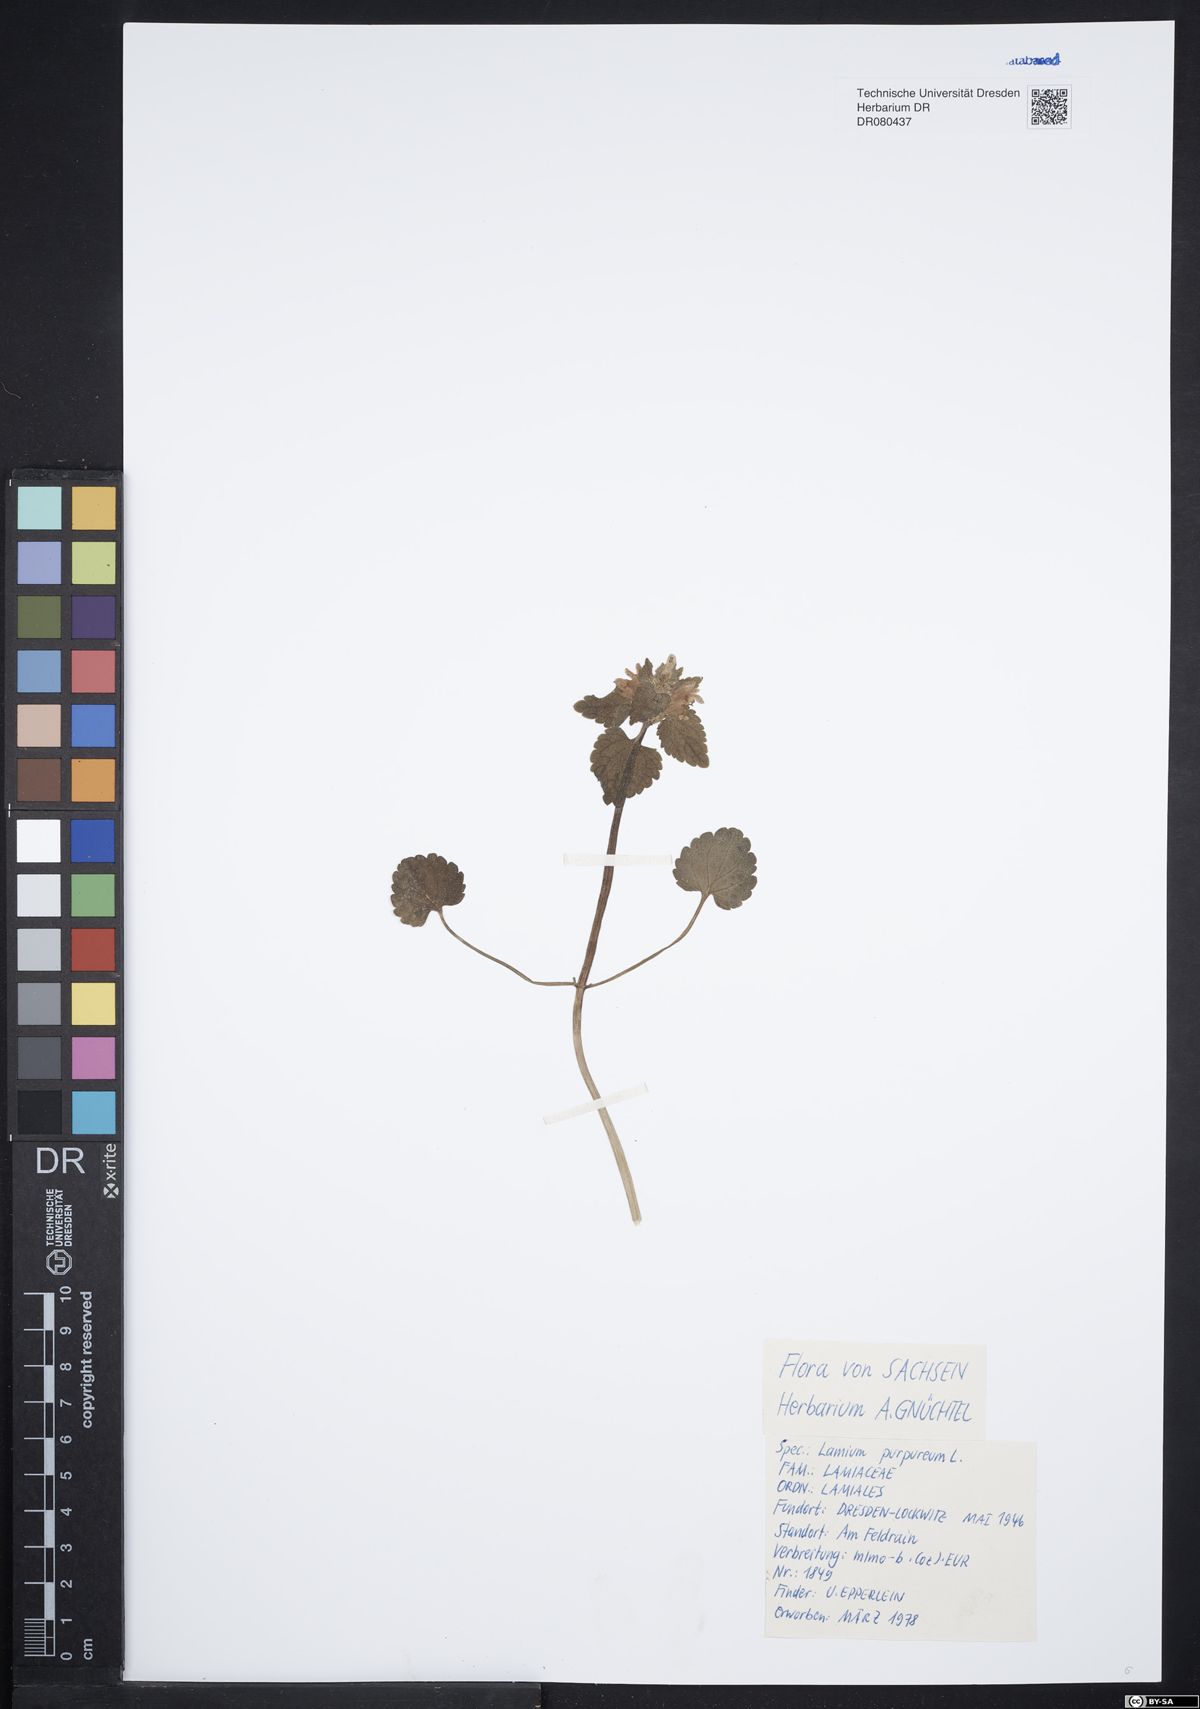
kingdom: Plantae
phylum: Tracheophyta
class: Magnoliopsida
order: Lamiales
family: Lamiaceae
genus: Lamium
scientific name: Lamium purpureum
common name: Red dead-nettle
